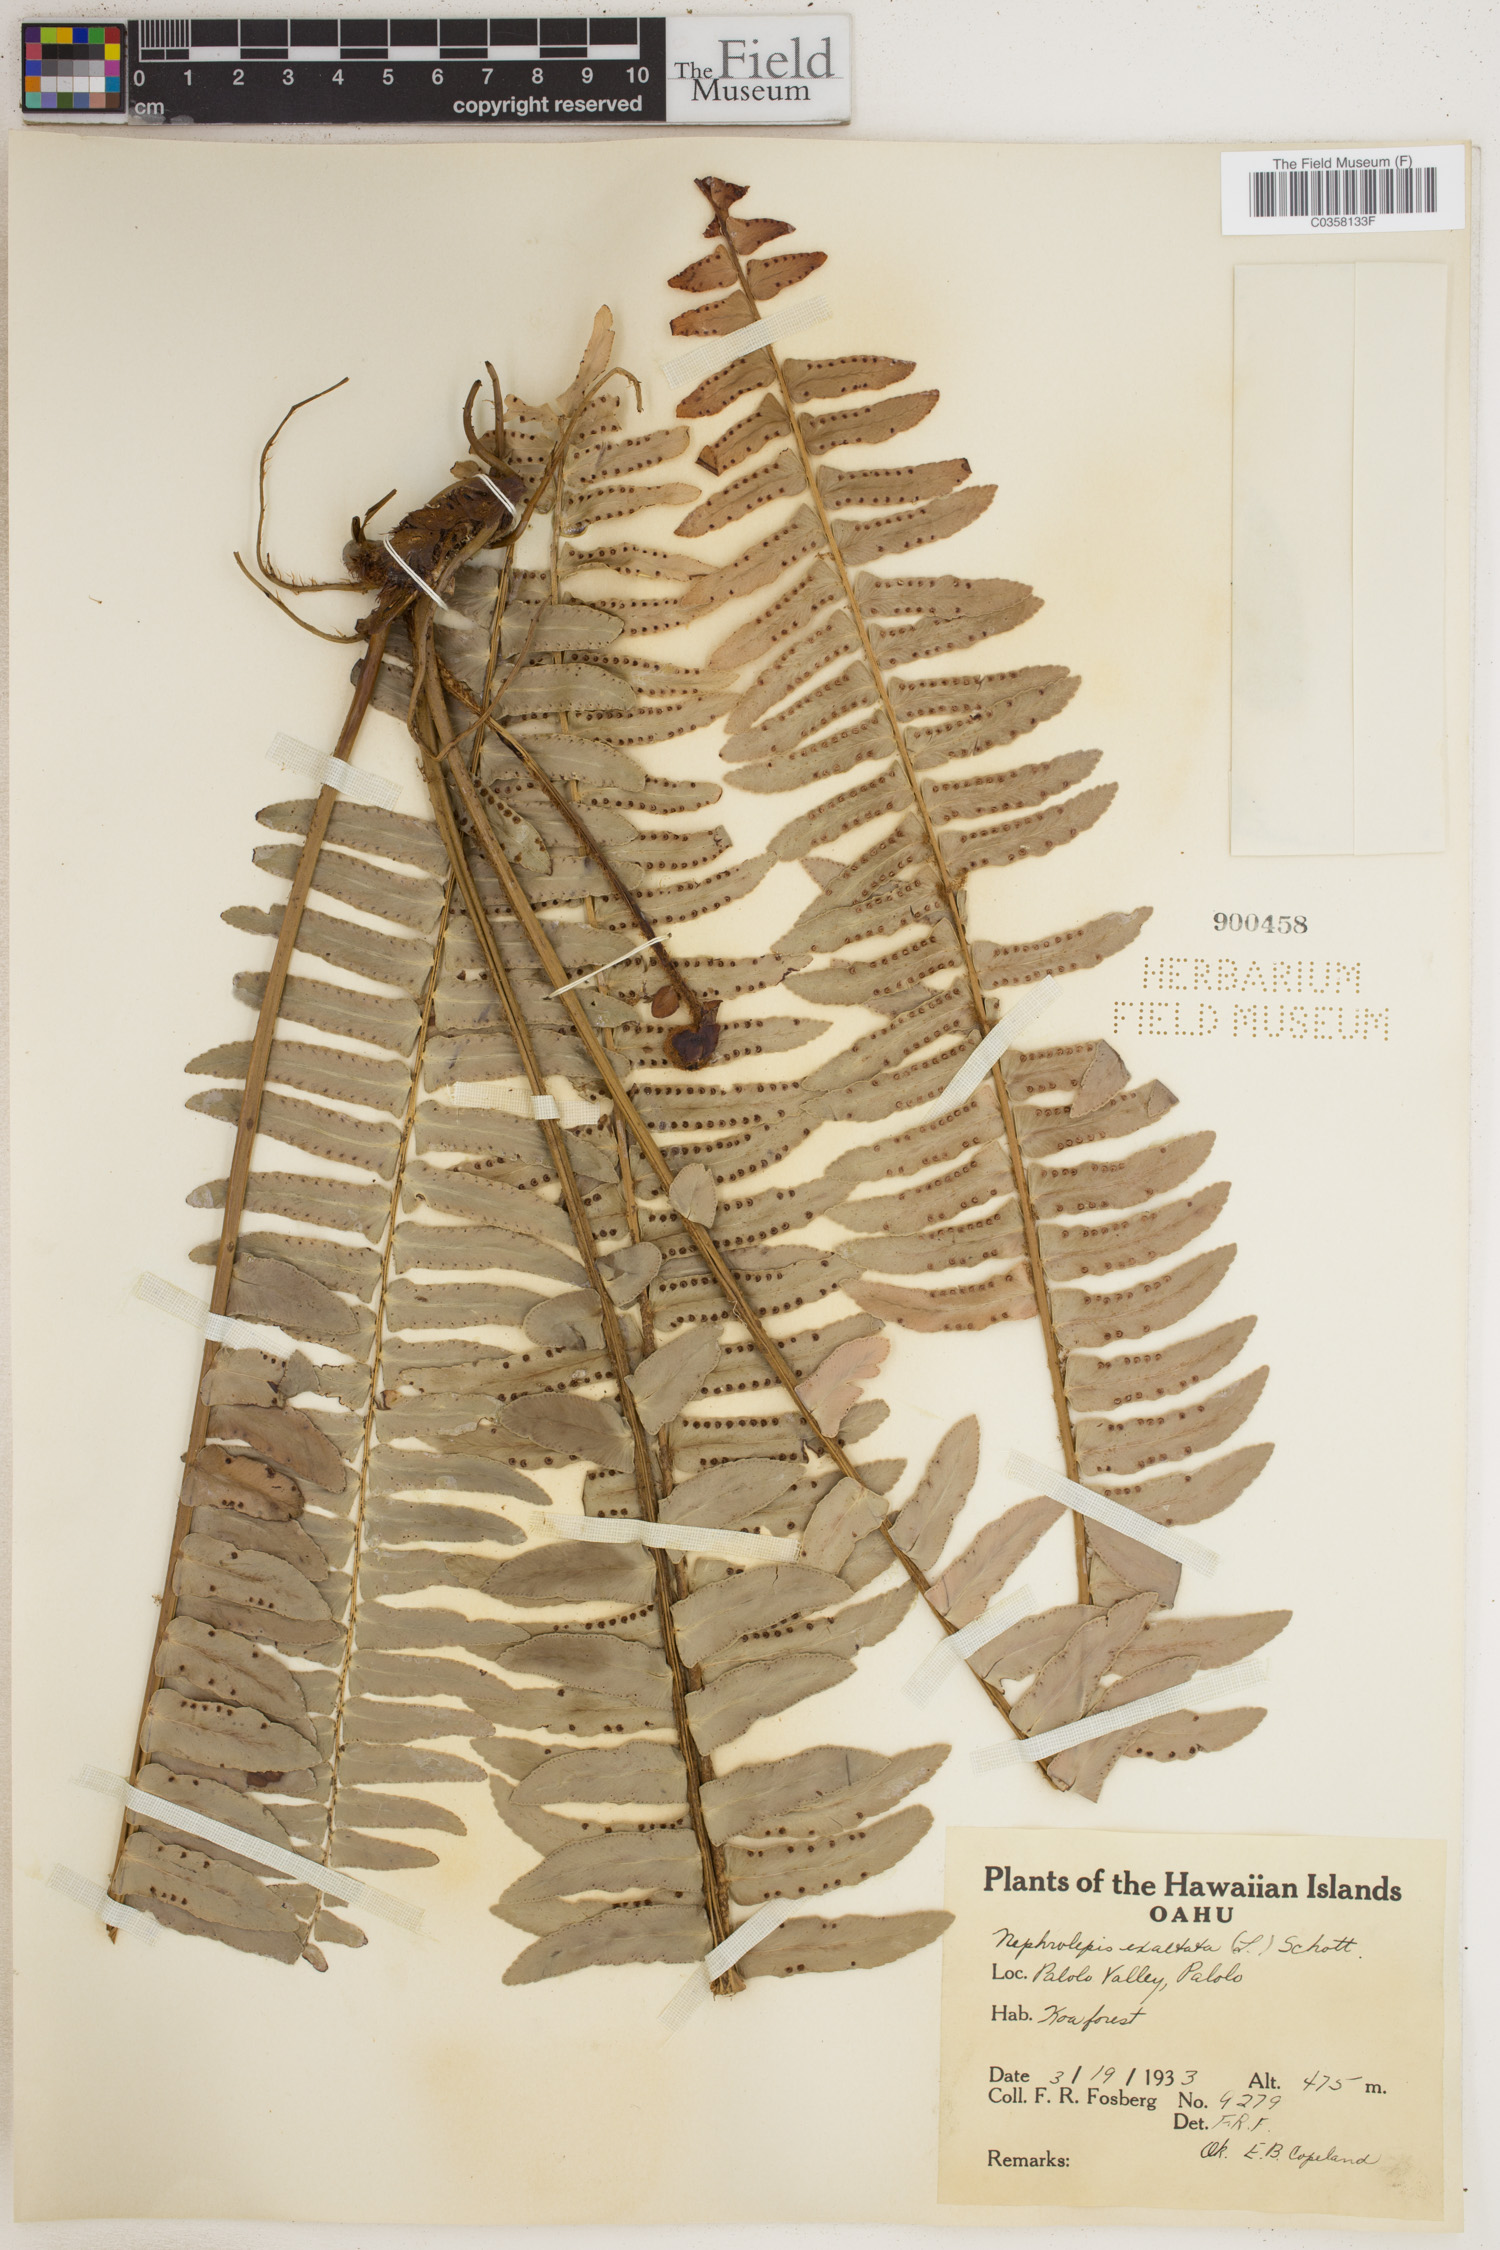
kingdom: Plantae
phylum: Tracheophyta
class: Polypodiopsida
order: Polypodiales
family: Nephrolepidaceae
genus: Nephrolepis
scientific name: Nephrolepis cordifolia
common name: Narrow swordfern
